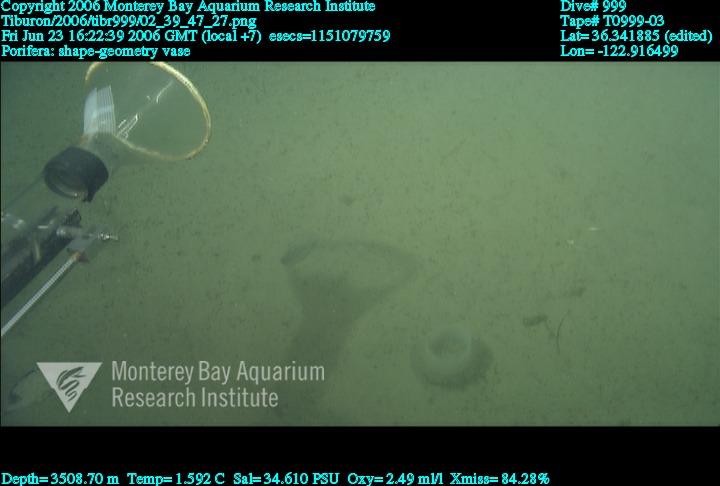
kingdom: Animalia
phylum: Porifera
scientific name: Porifera
